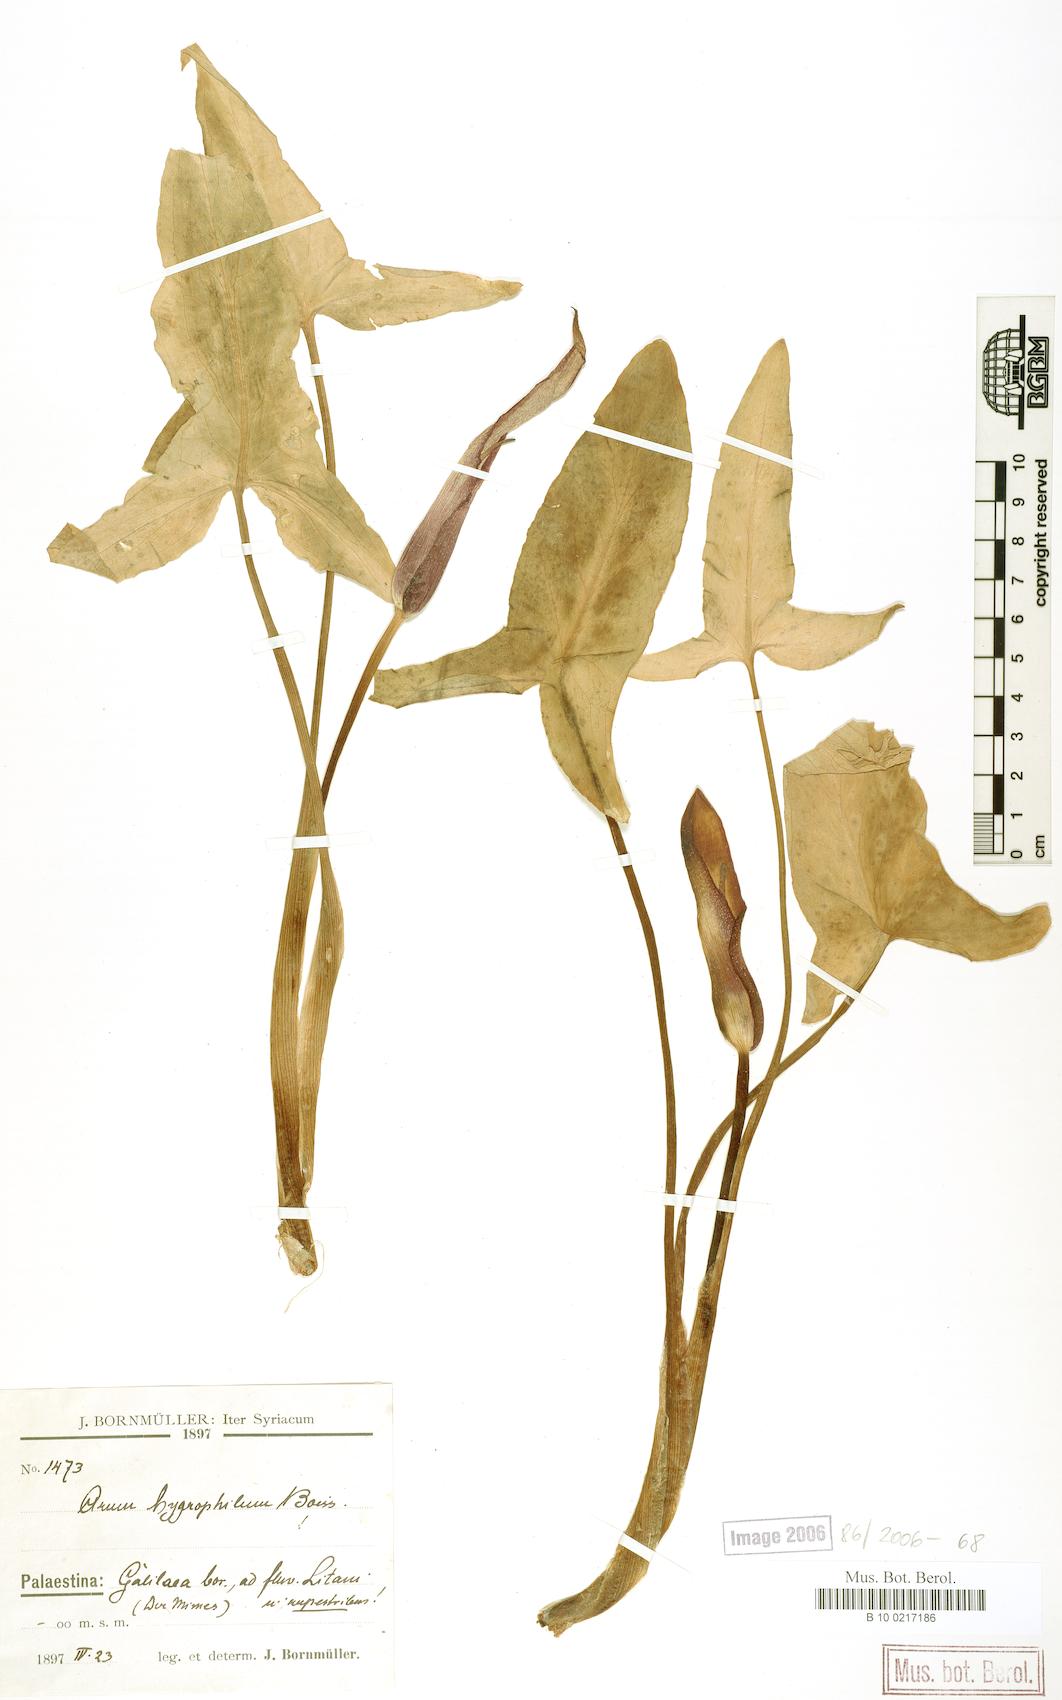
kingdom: Plantae
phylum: Tracheophyta
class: Liliopsida
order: Alismatales
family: Araceae
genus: Arum
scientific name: Arum hygrophilum
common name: Water arum
